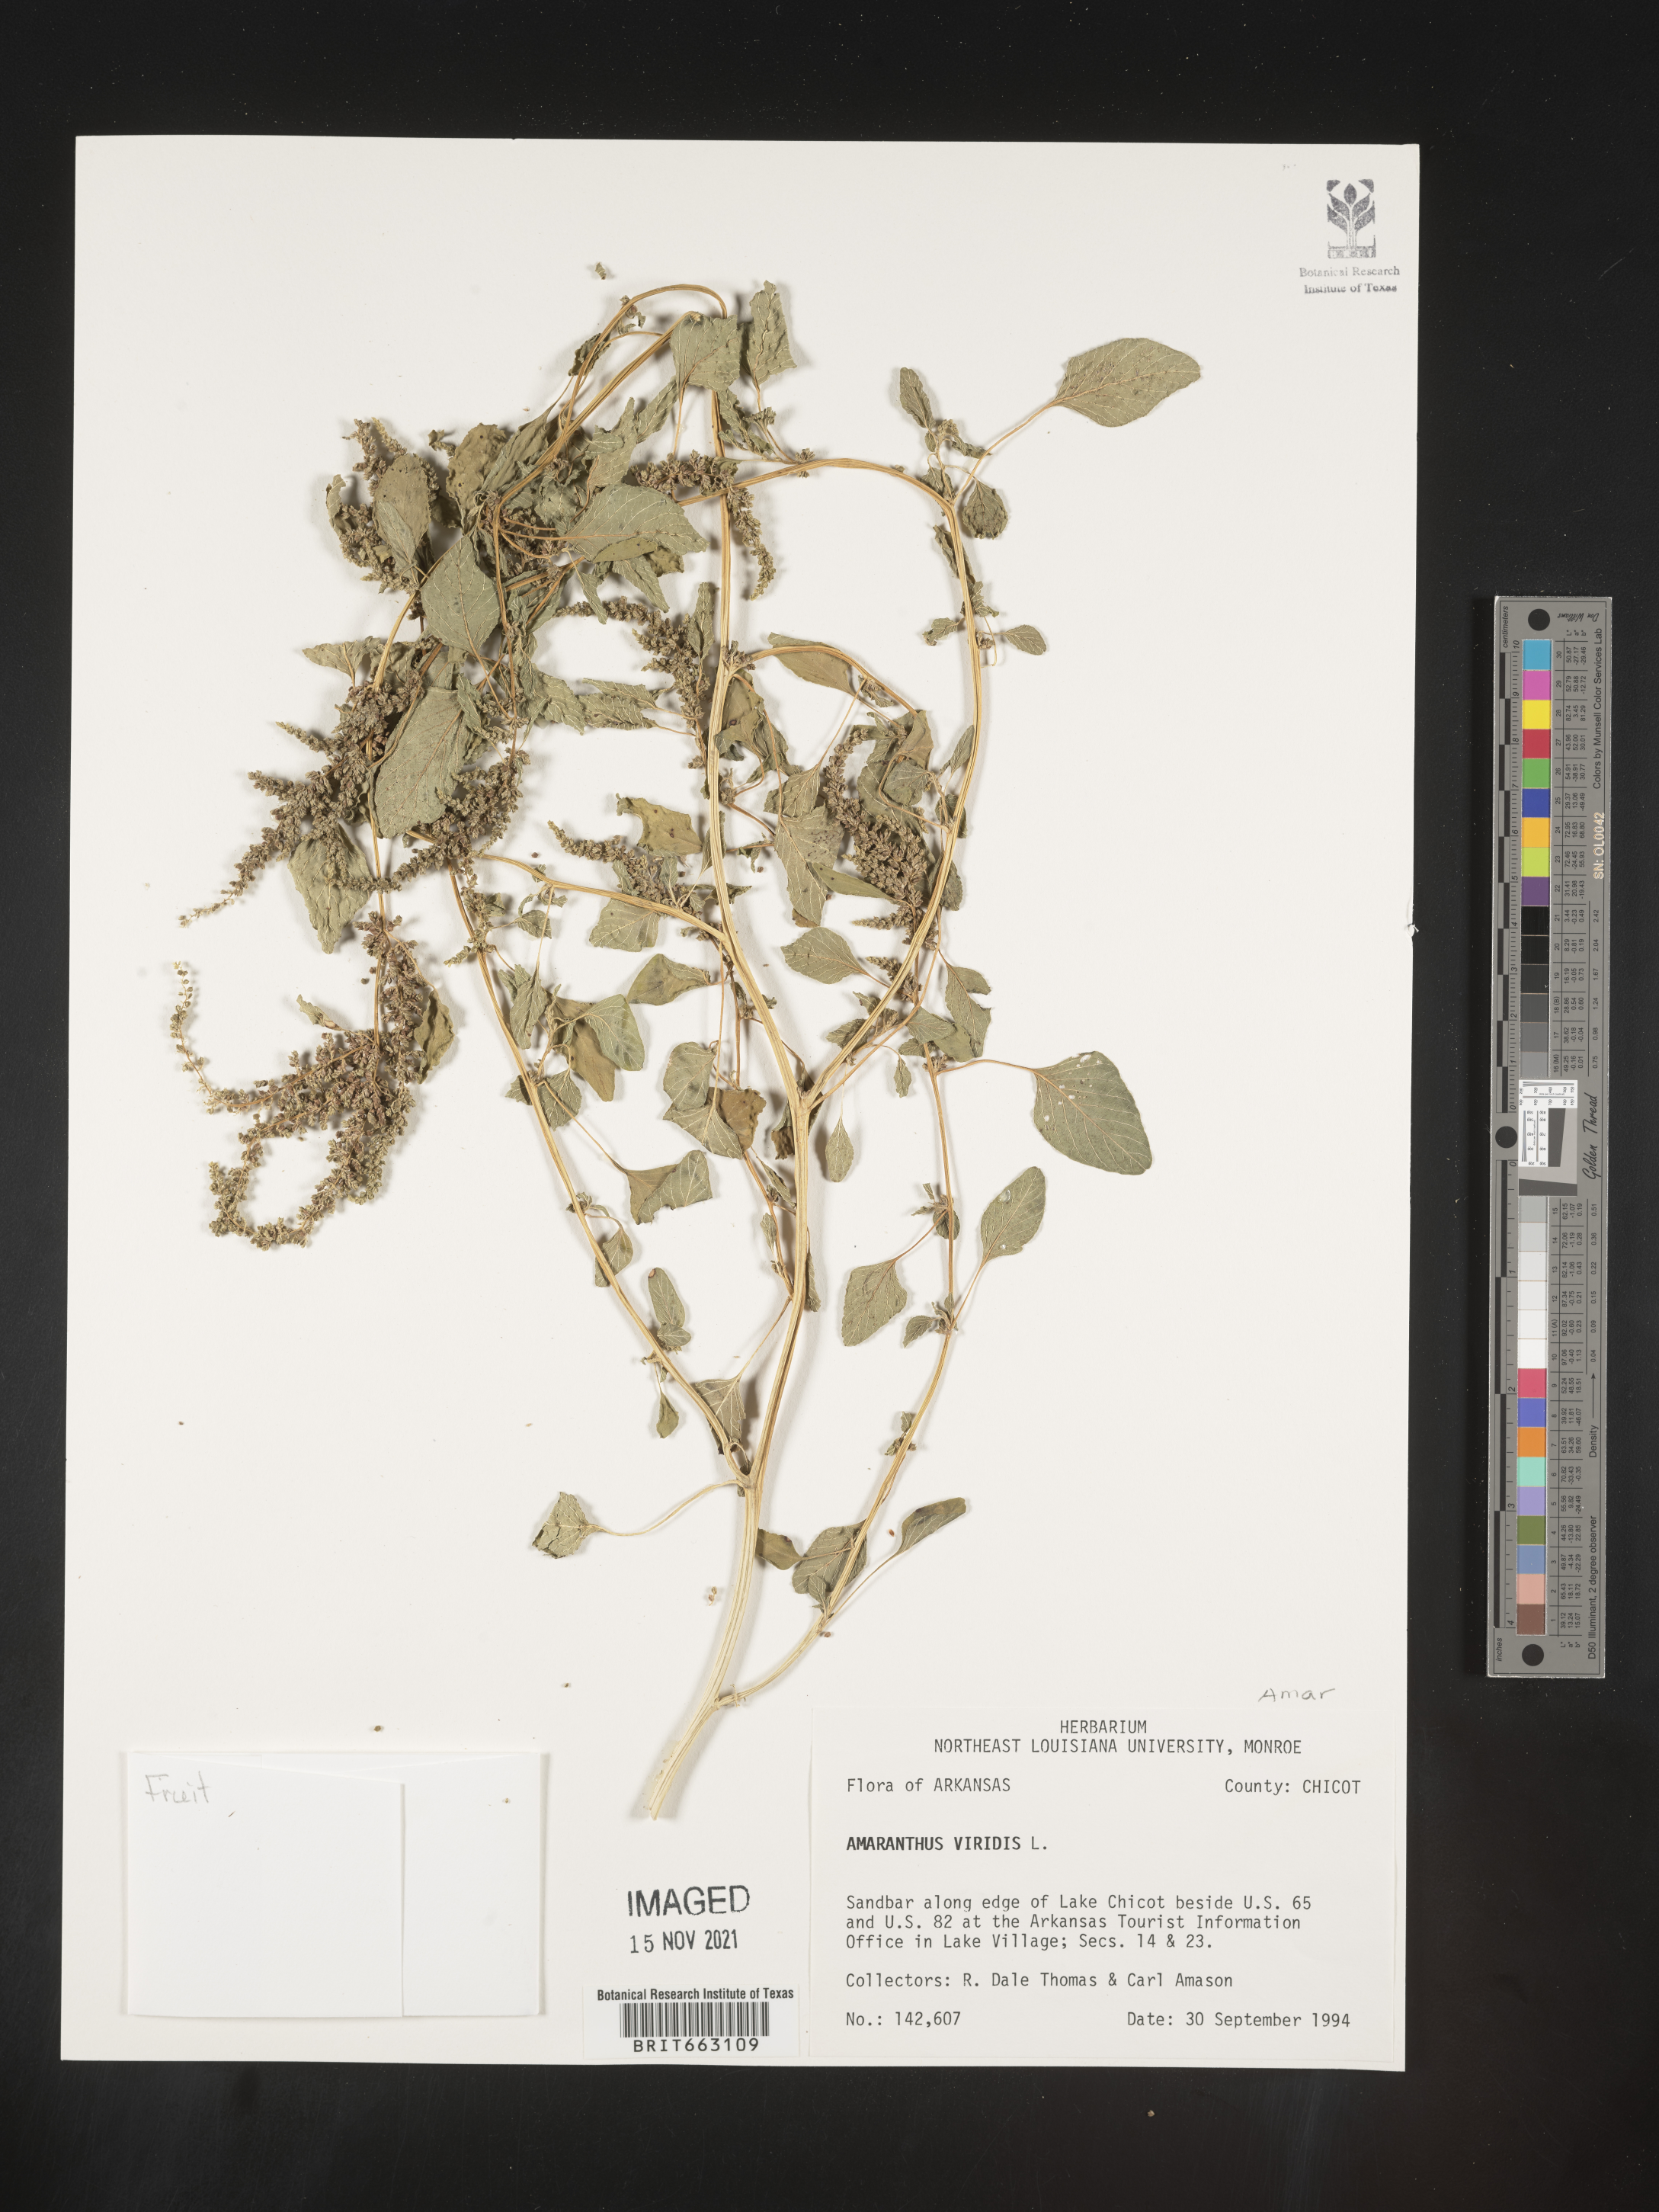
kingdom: Plantae
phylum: Tracheophyta
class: Magnoliopsida
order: Caryophyllales
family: Amaranthaceae
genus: Amaranthus
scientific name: Amaranthus viridis
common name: Slender amaranth
